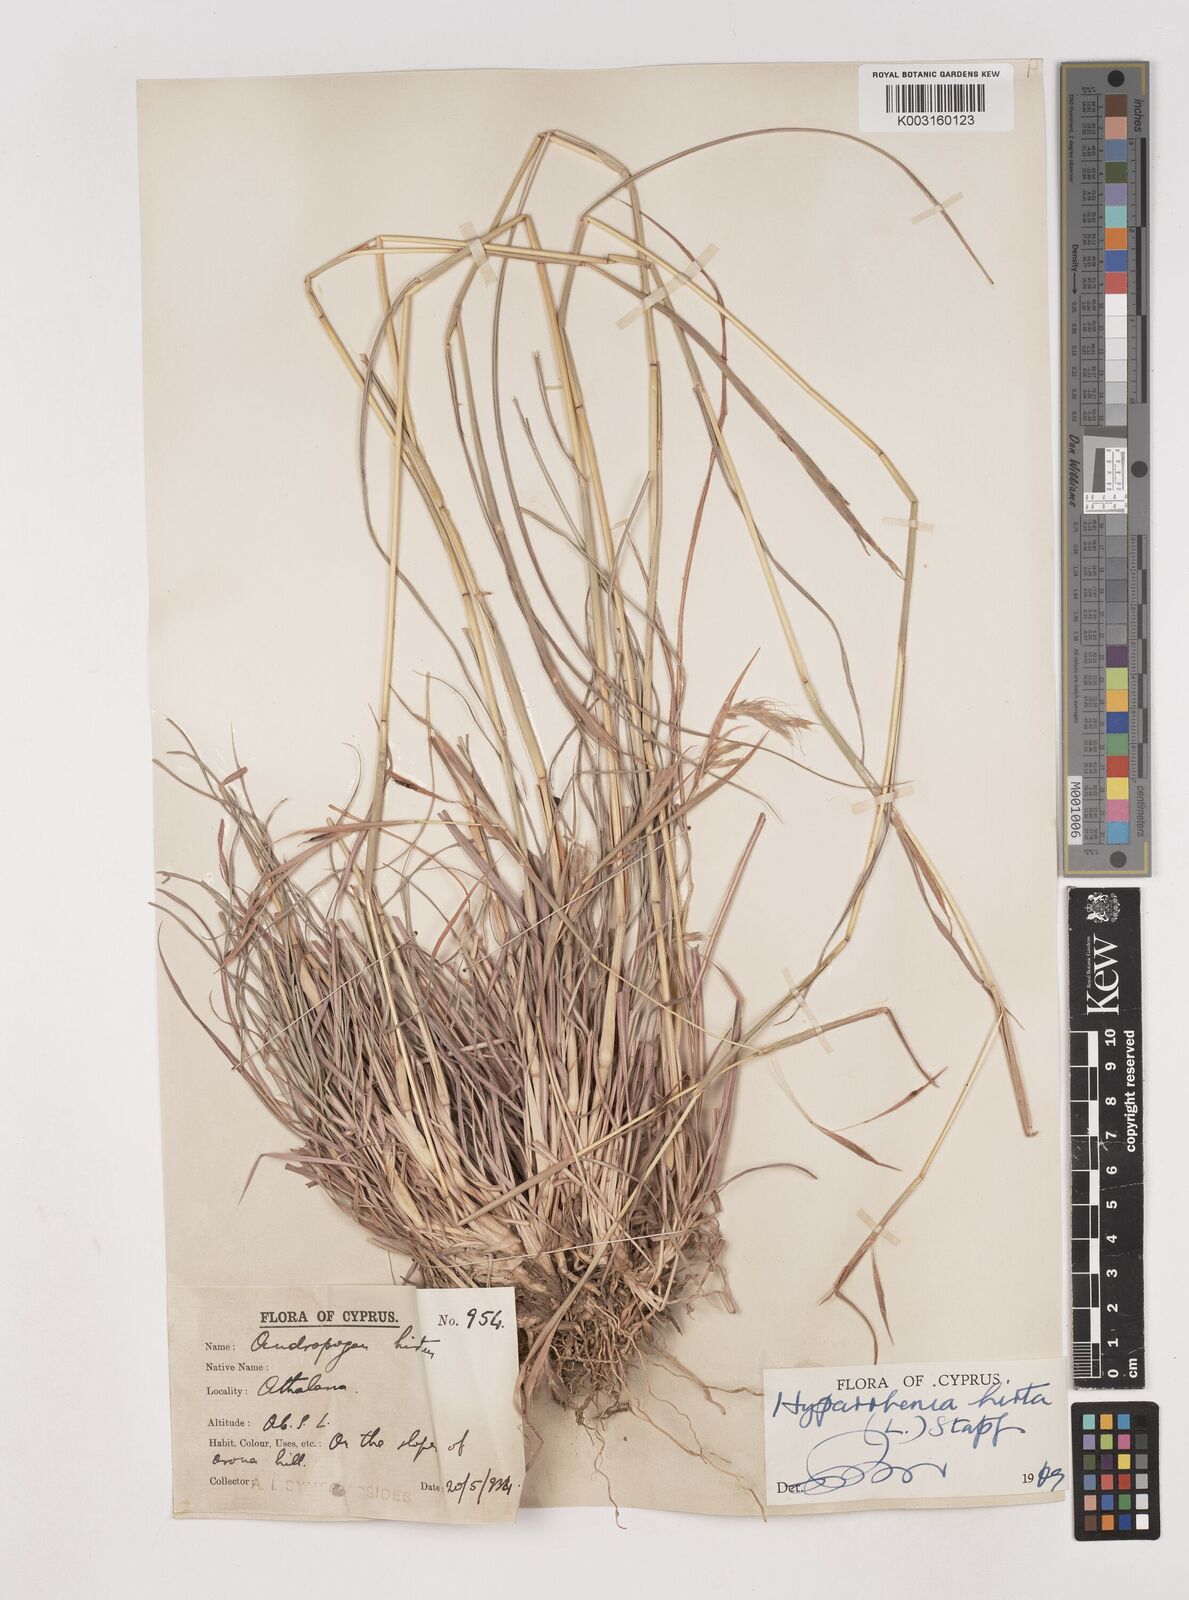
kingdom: Plantae
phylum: Tracheophyta
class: Liliopsida
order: Poales
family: Poaceae
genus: Hyparrhenia
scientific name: Hyparrhenia hirta
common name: Thatching grass
